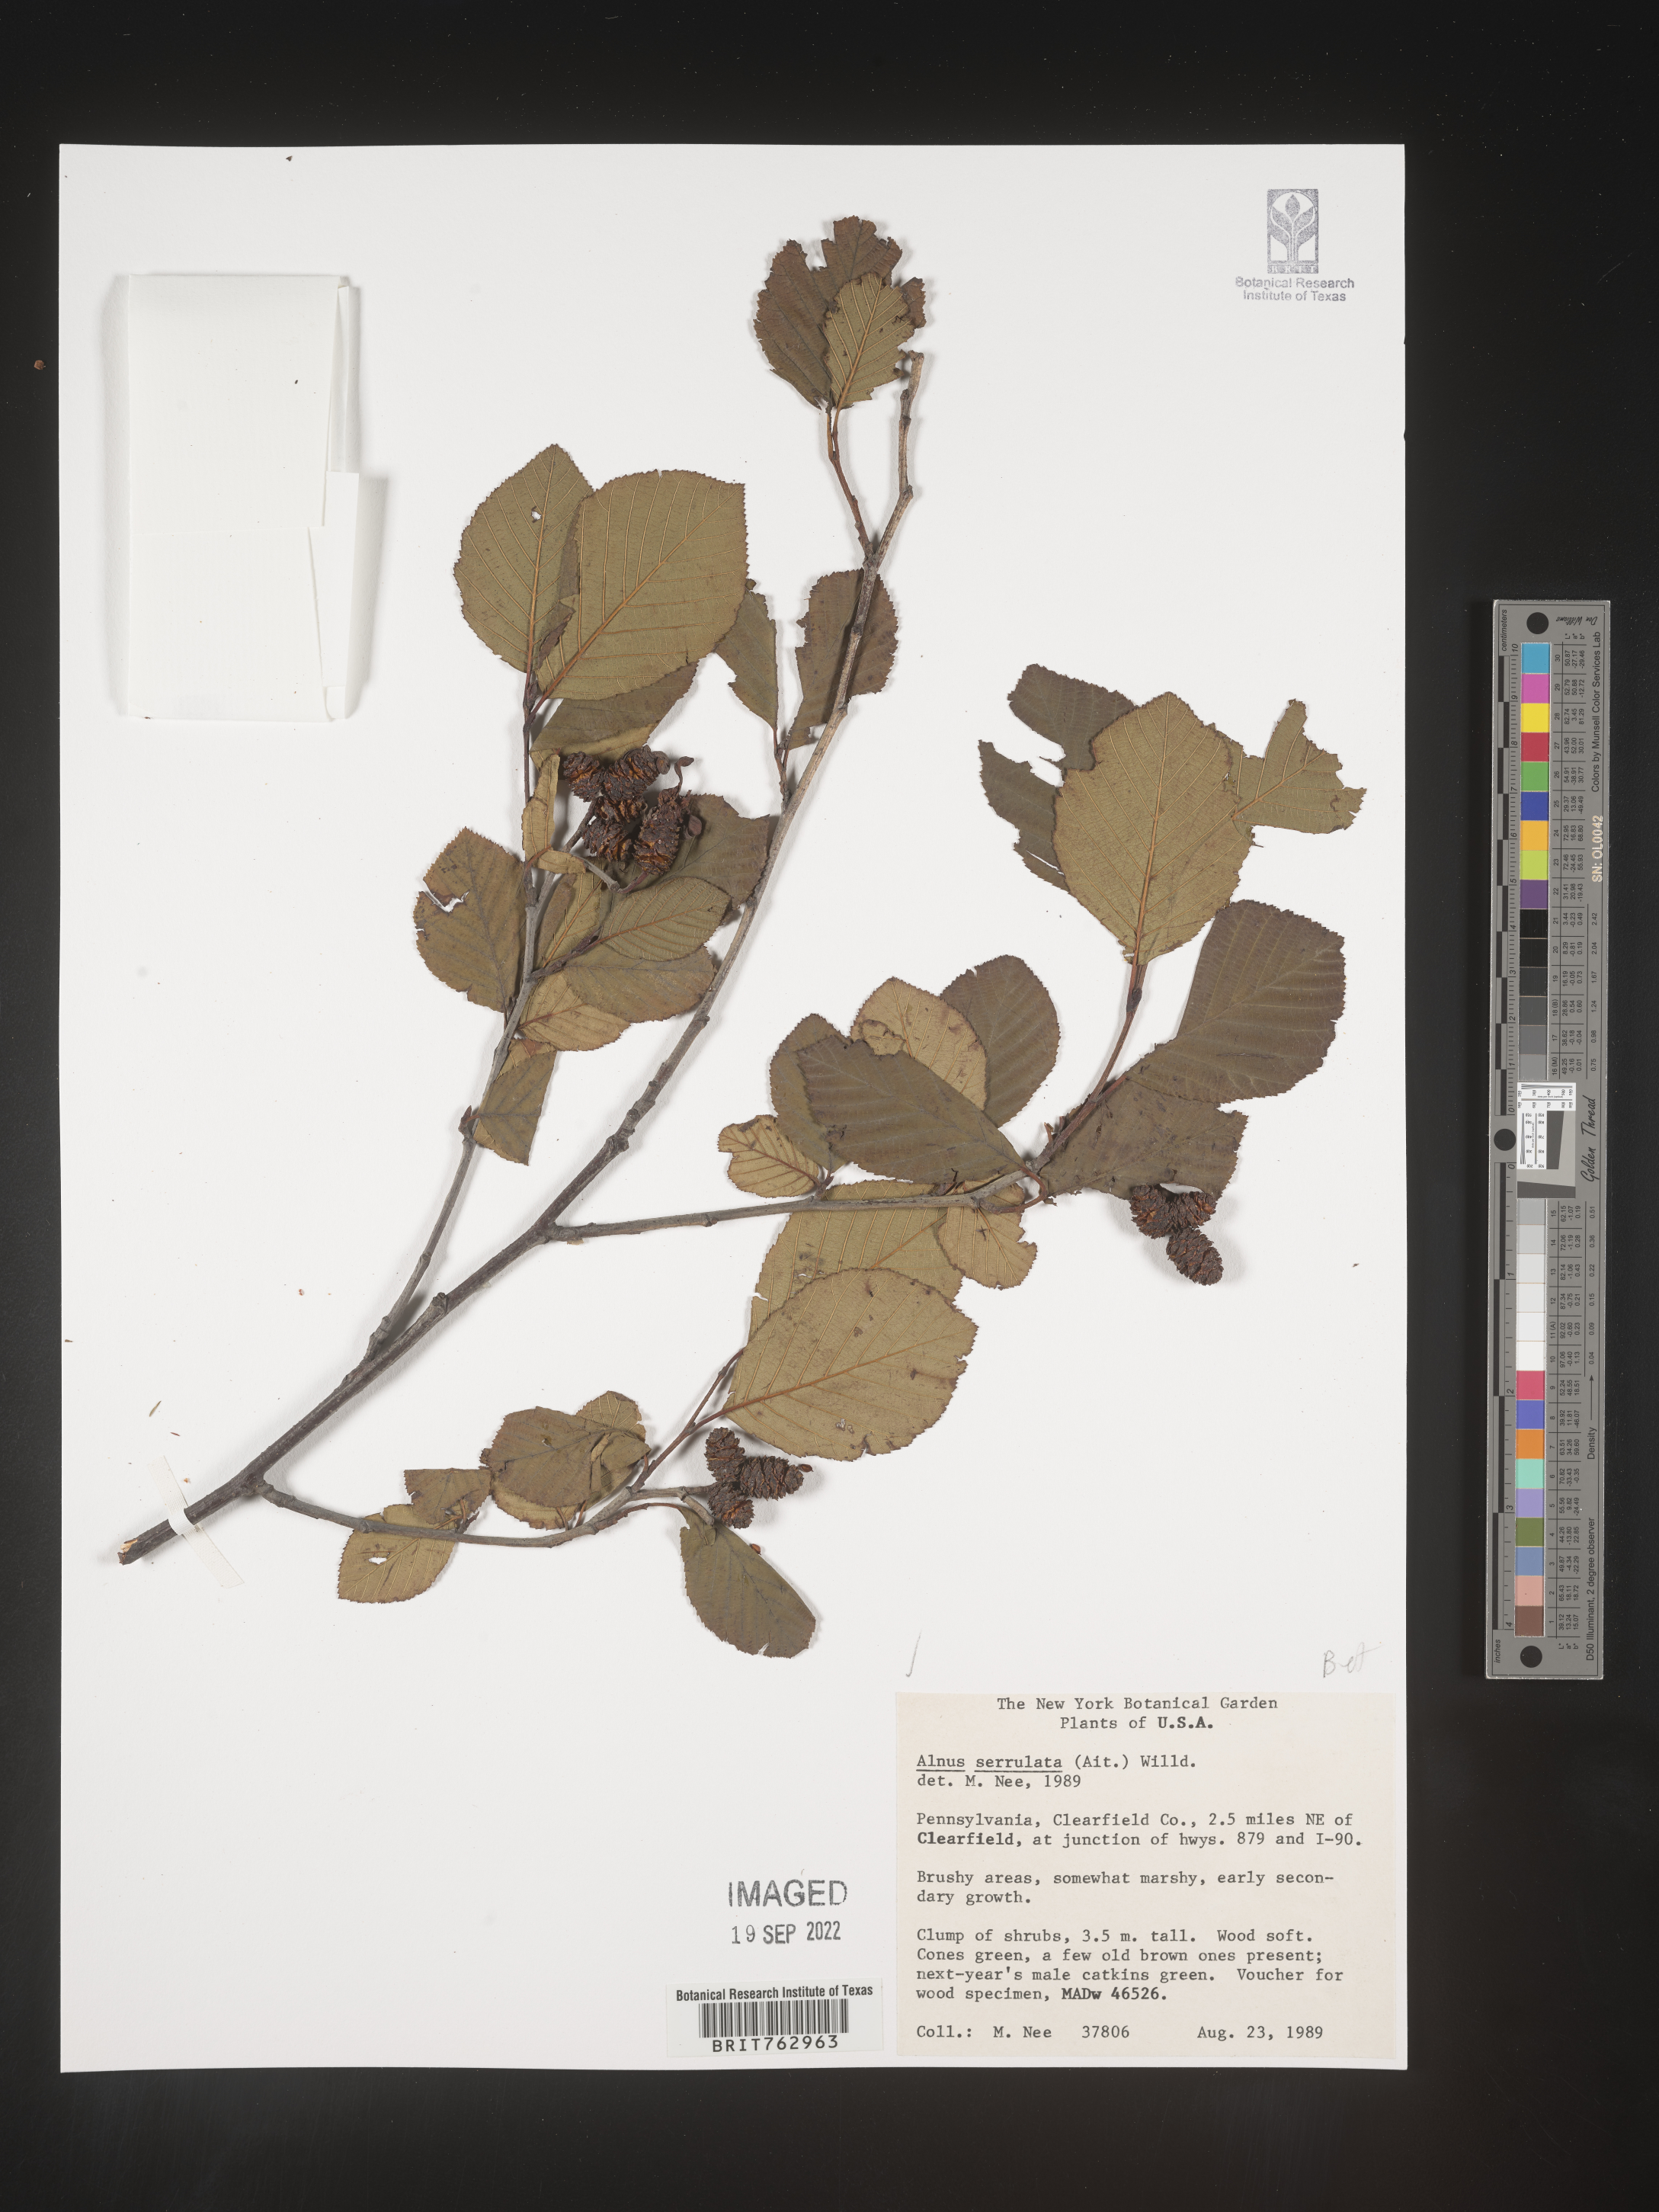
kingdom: Plantae
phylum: Tracheophyta
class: Magnoliopsida
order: Fagales
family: Betulaceae
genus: Alnus
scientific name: Alnus serrulata
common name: Hazel alder
